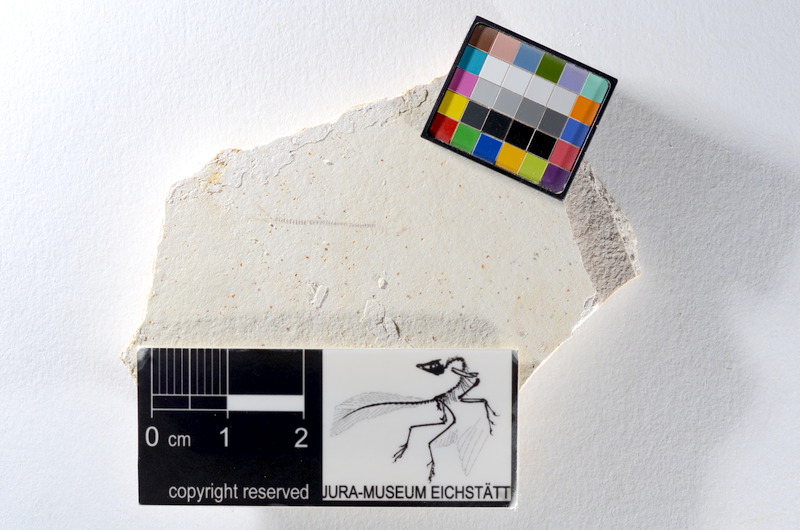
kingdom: Animalia
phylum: Chordata
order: Salmoniformes
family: Orthogonikleithridae
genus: Orthogonikleithrus
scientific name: Orthogonikleithrus hoelli
